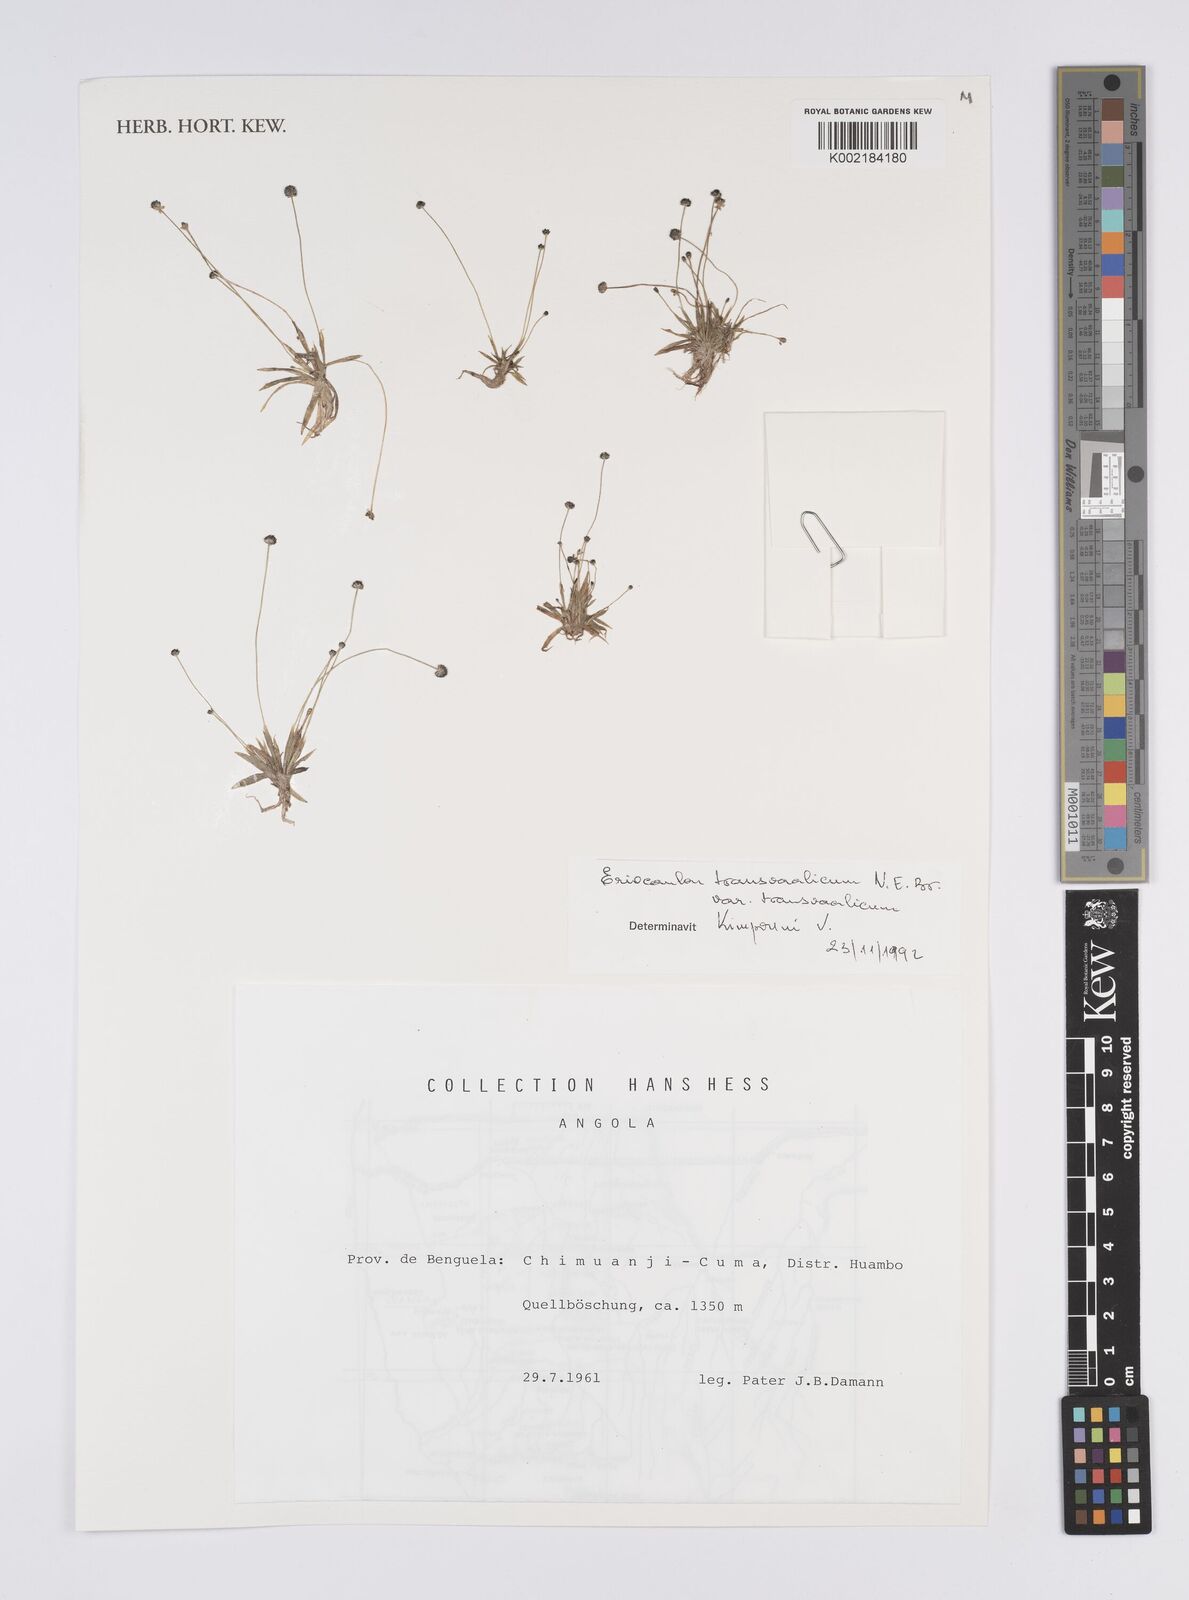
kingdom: Plantae
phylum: Tracheophyta
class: Liliopsida
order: Poales
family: Eriocaulaceae
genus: Eriocaulon
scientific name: Eriocaulon transvaalicum
